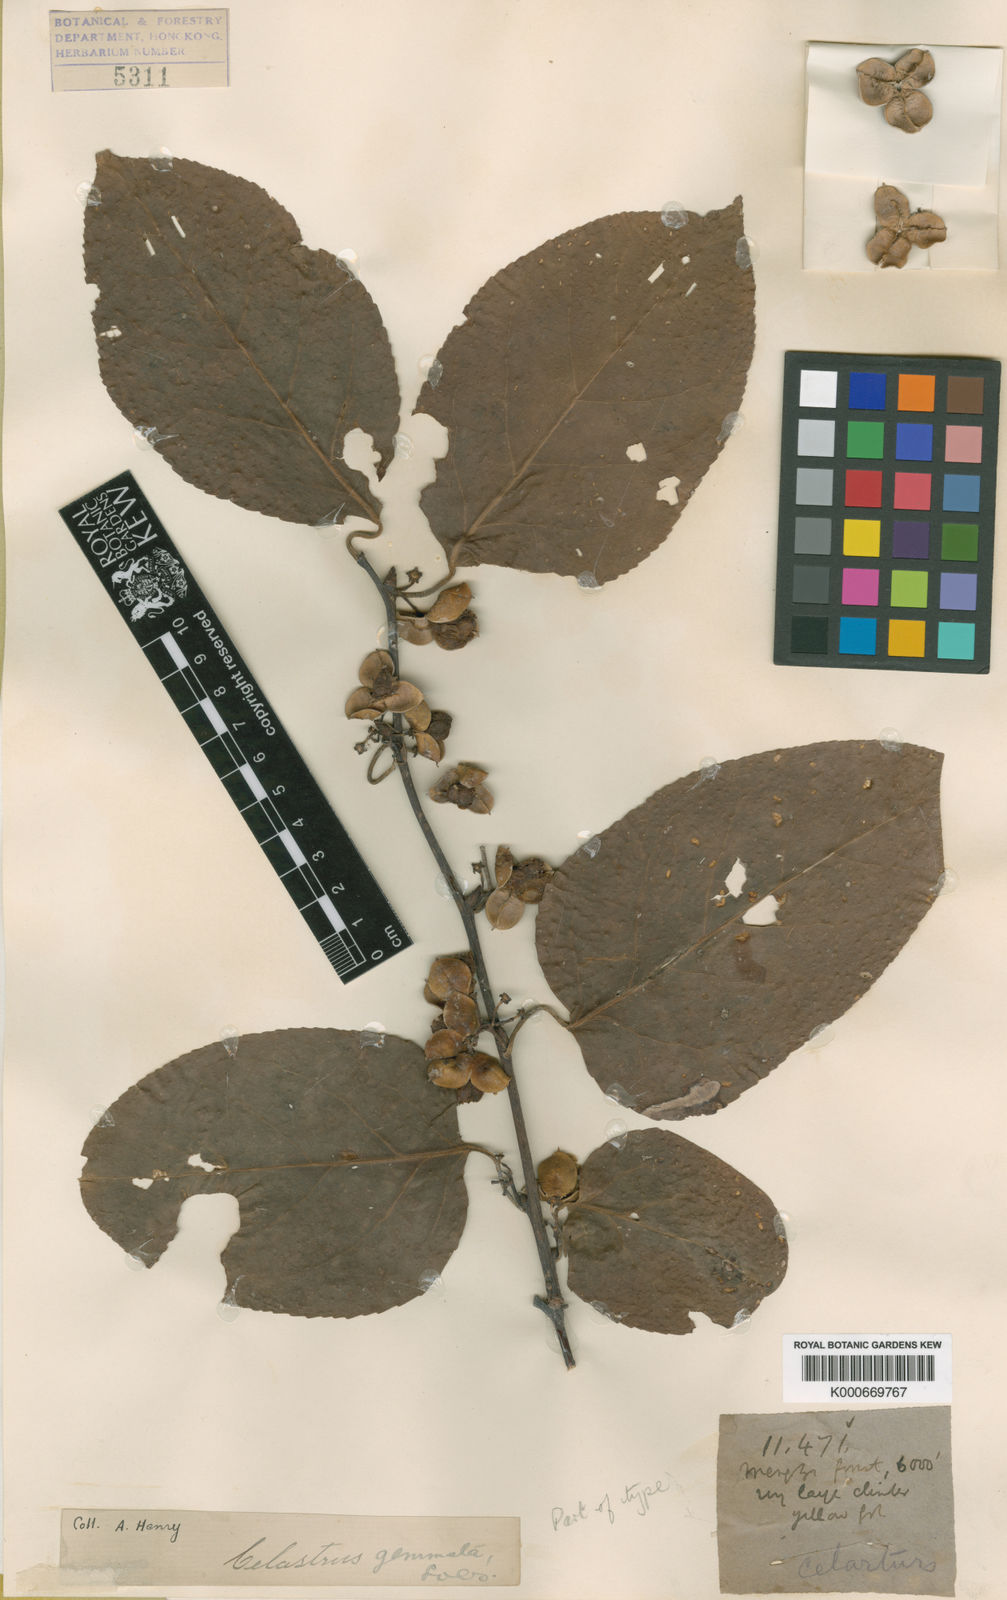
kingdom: Plantae
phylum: Tracheophyta
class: Magnoliopsida
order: Celastrales
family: Celastraceae
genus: Celastrus
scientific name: Celastrus gemmatus
